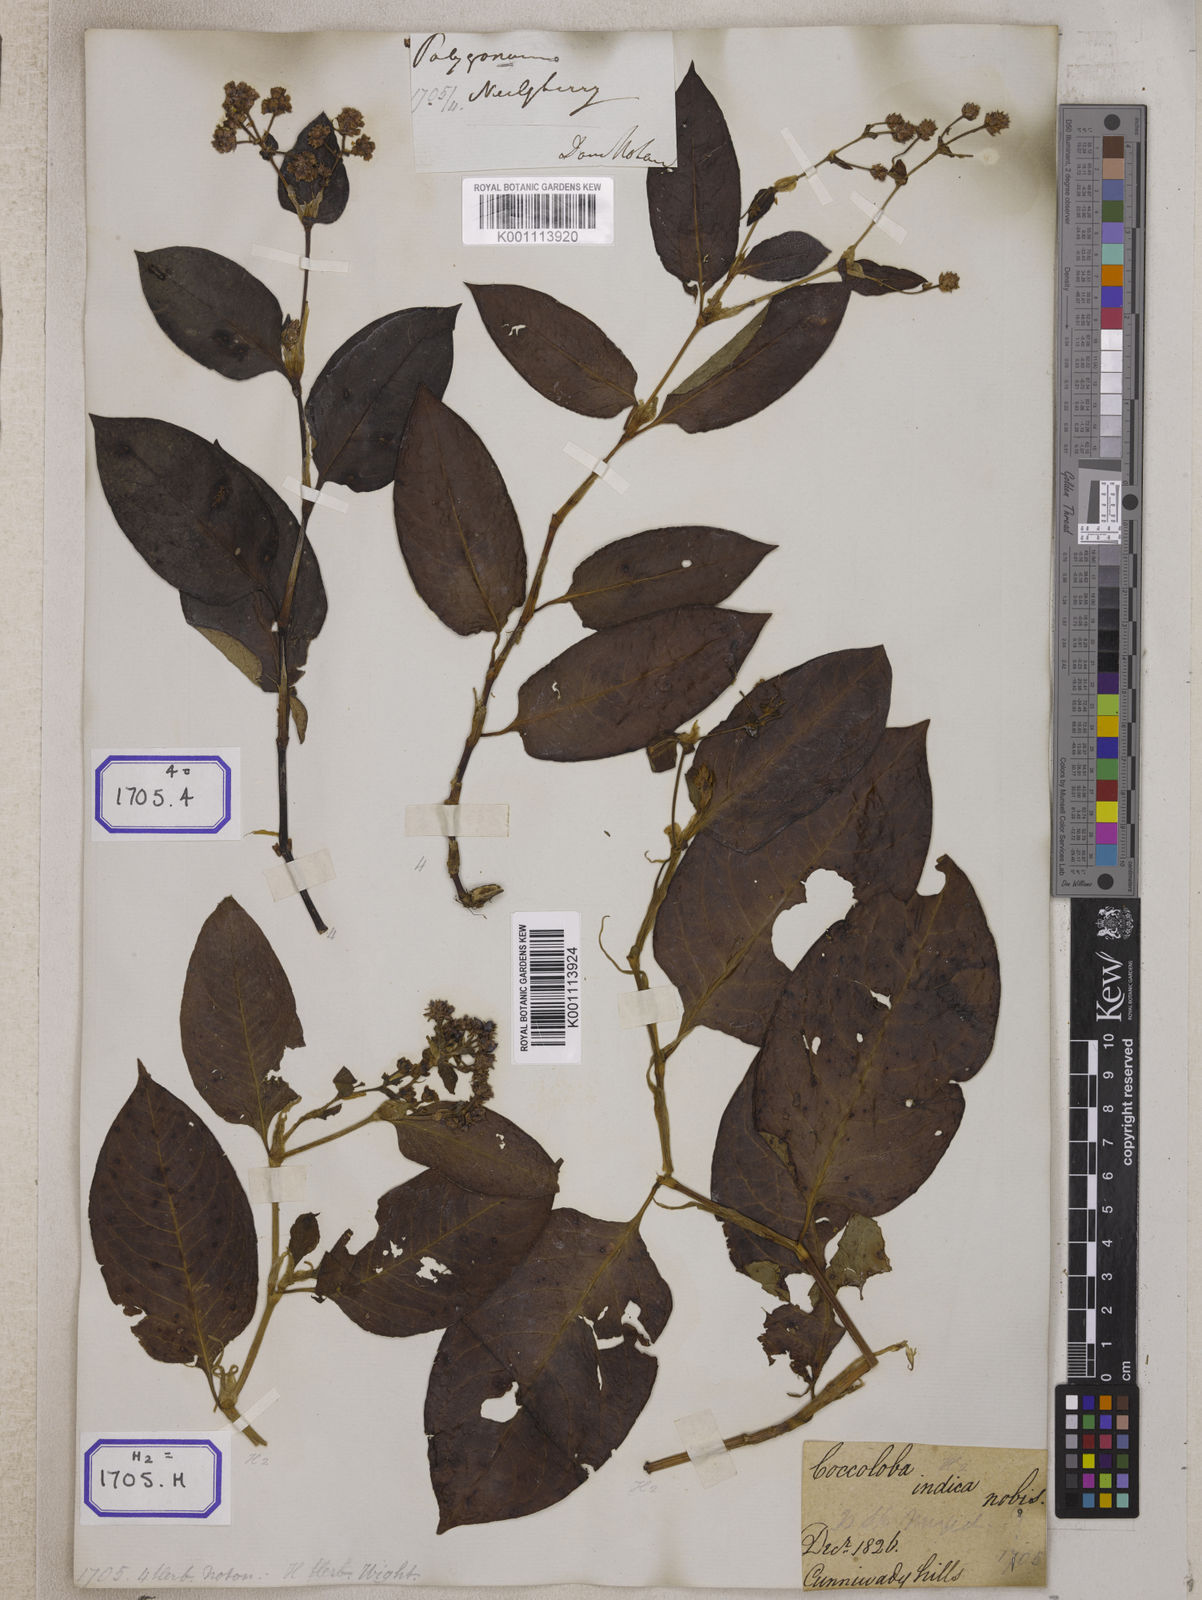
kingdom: Plantae
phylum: Tracheophyta
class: Magnoliopsida
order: Caryophyllales
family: Polygonaceae
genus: Persicaria
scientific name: Persicaria chinensis
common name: Chinese knotweed
